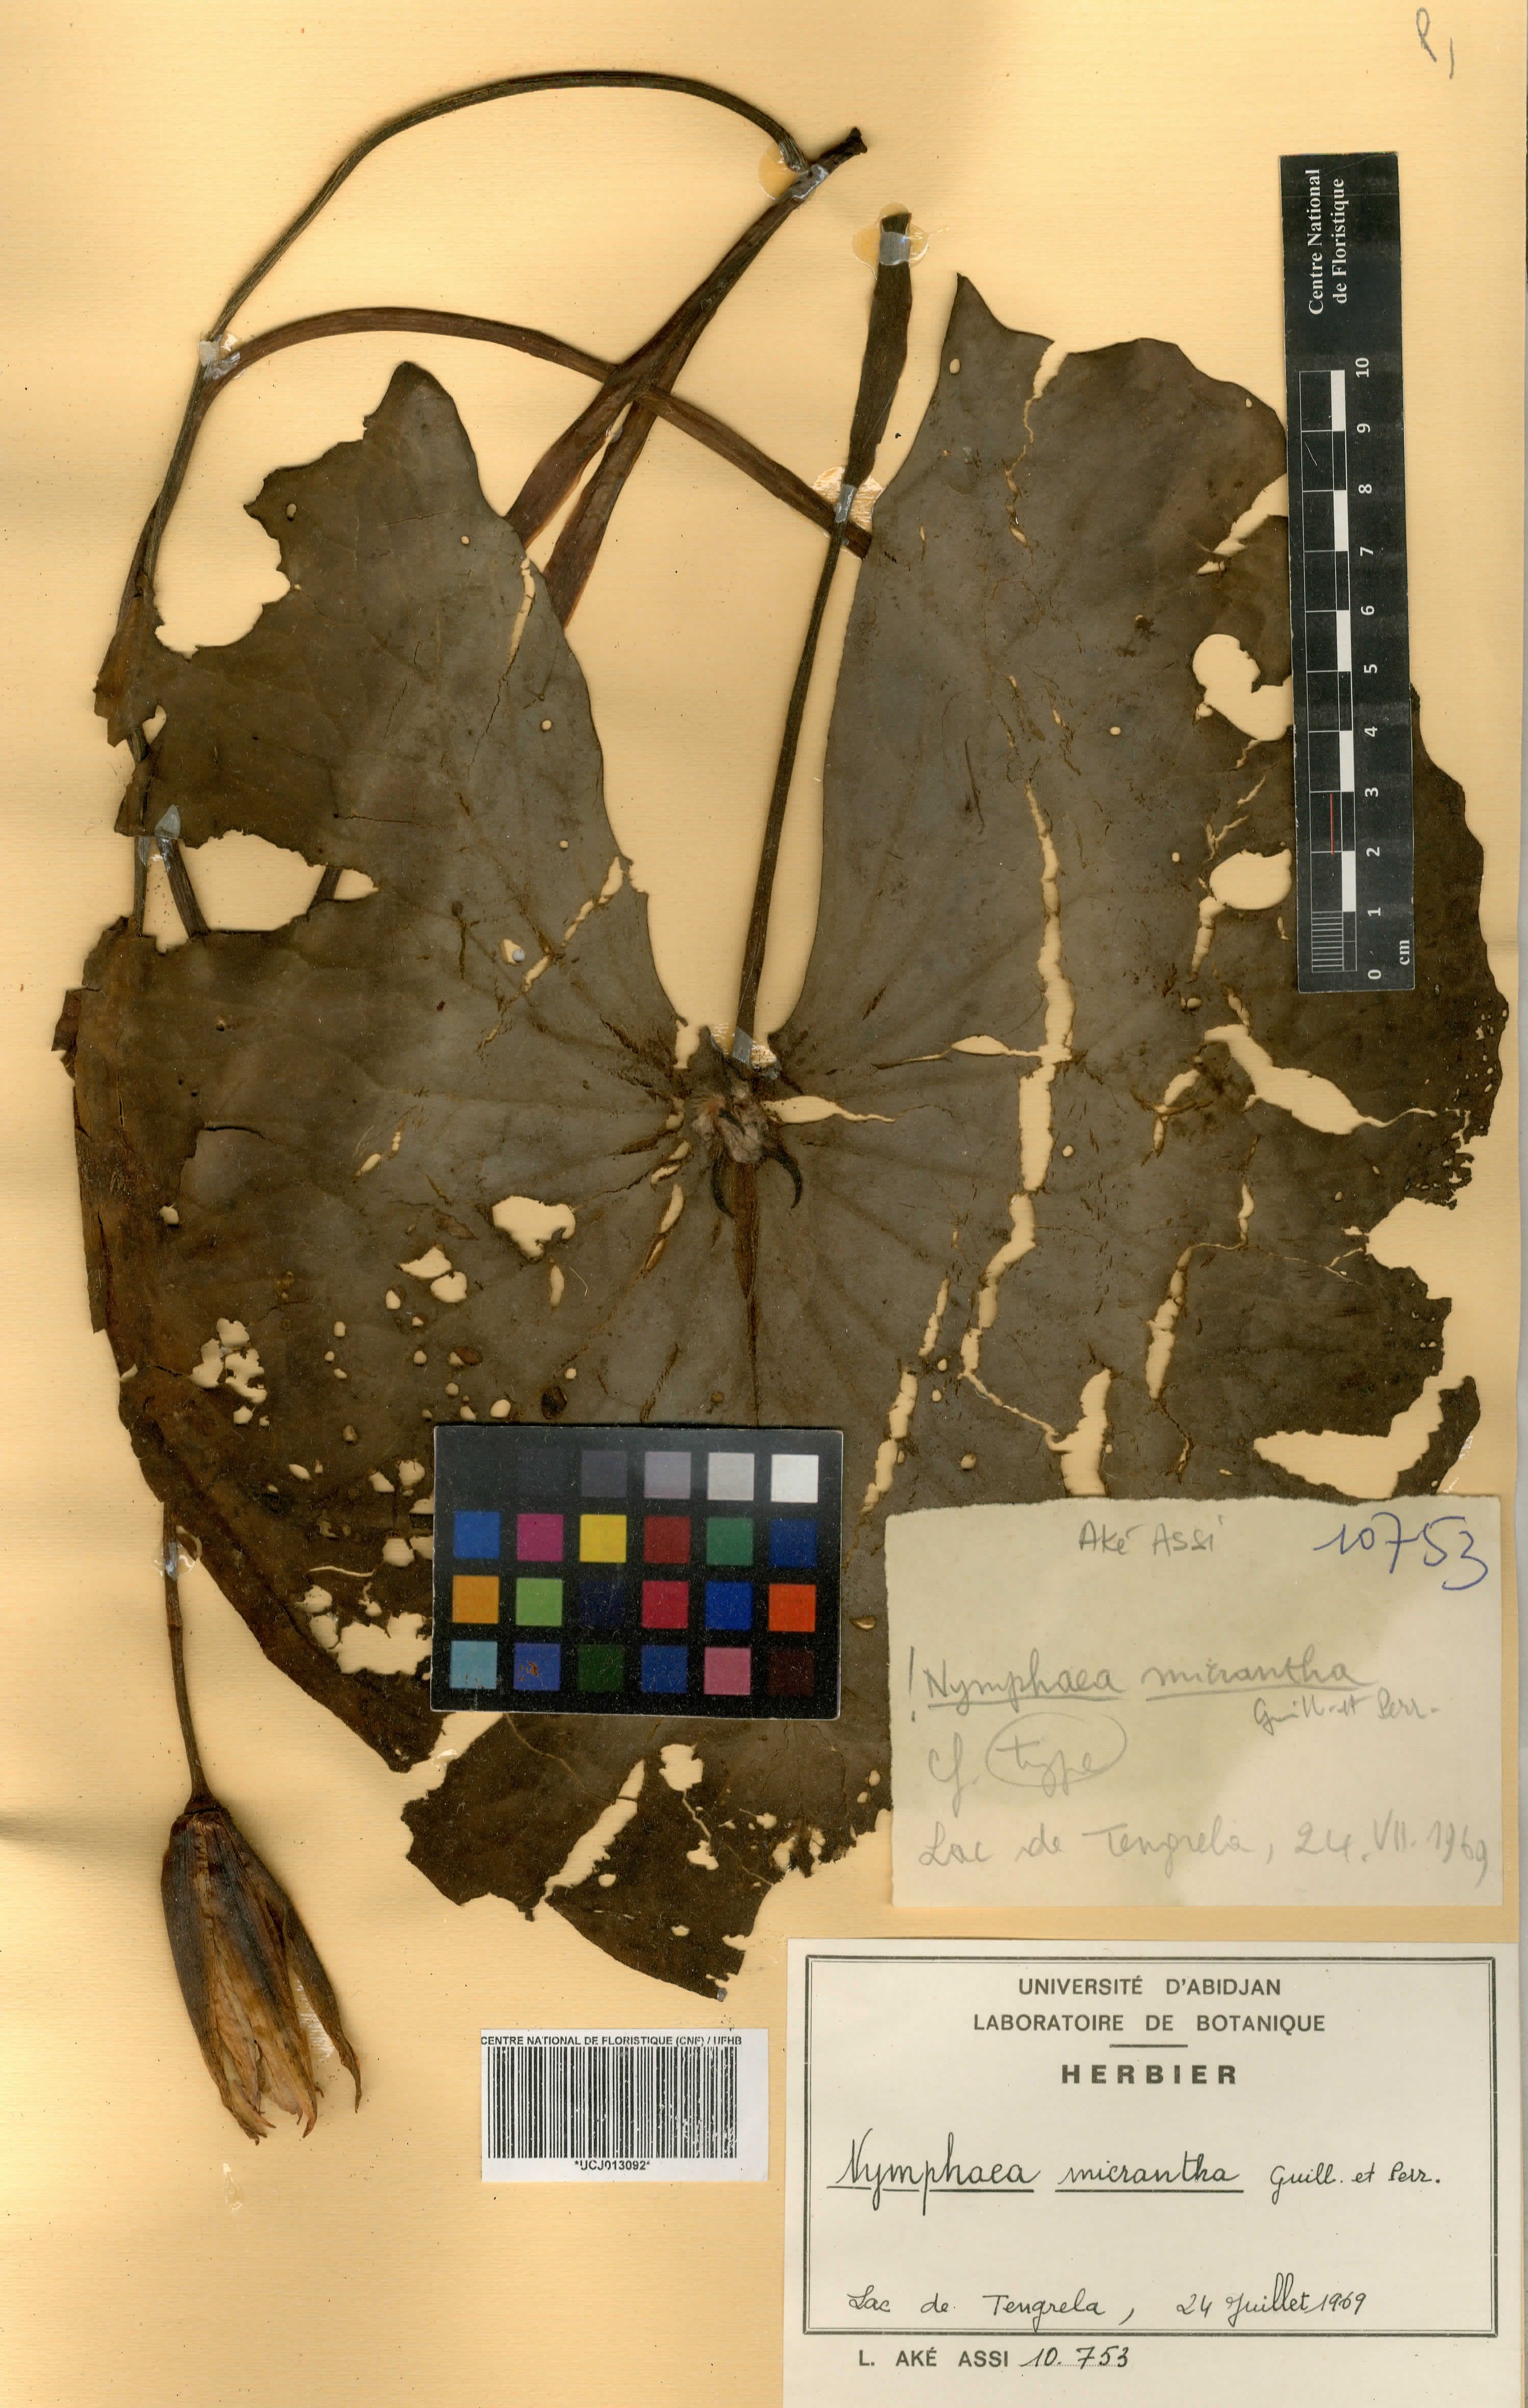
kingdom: Plantae
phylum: Tracheophyta
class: Magnoliopsida
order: Nymphaeales
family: Nymphaeaceae
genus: Nymphaea
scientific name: Nymphaea micrantha
